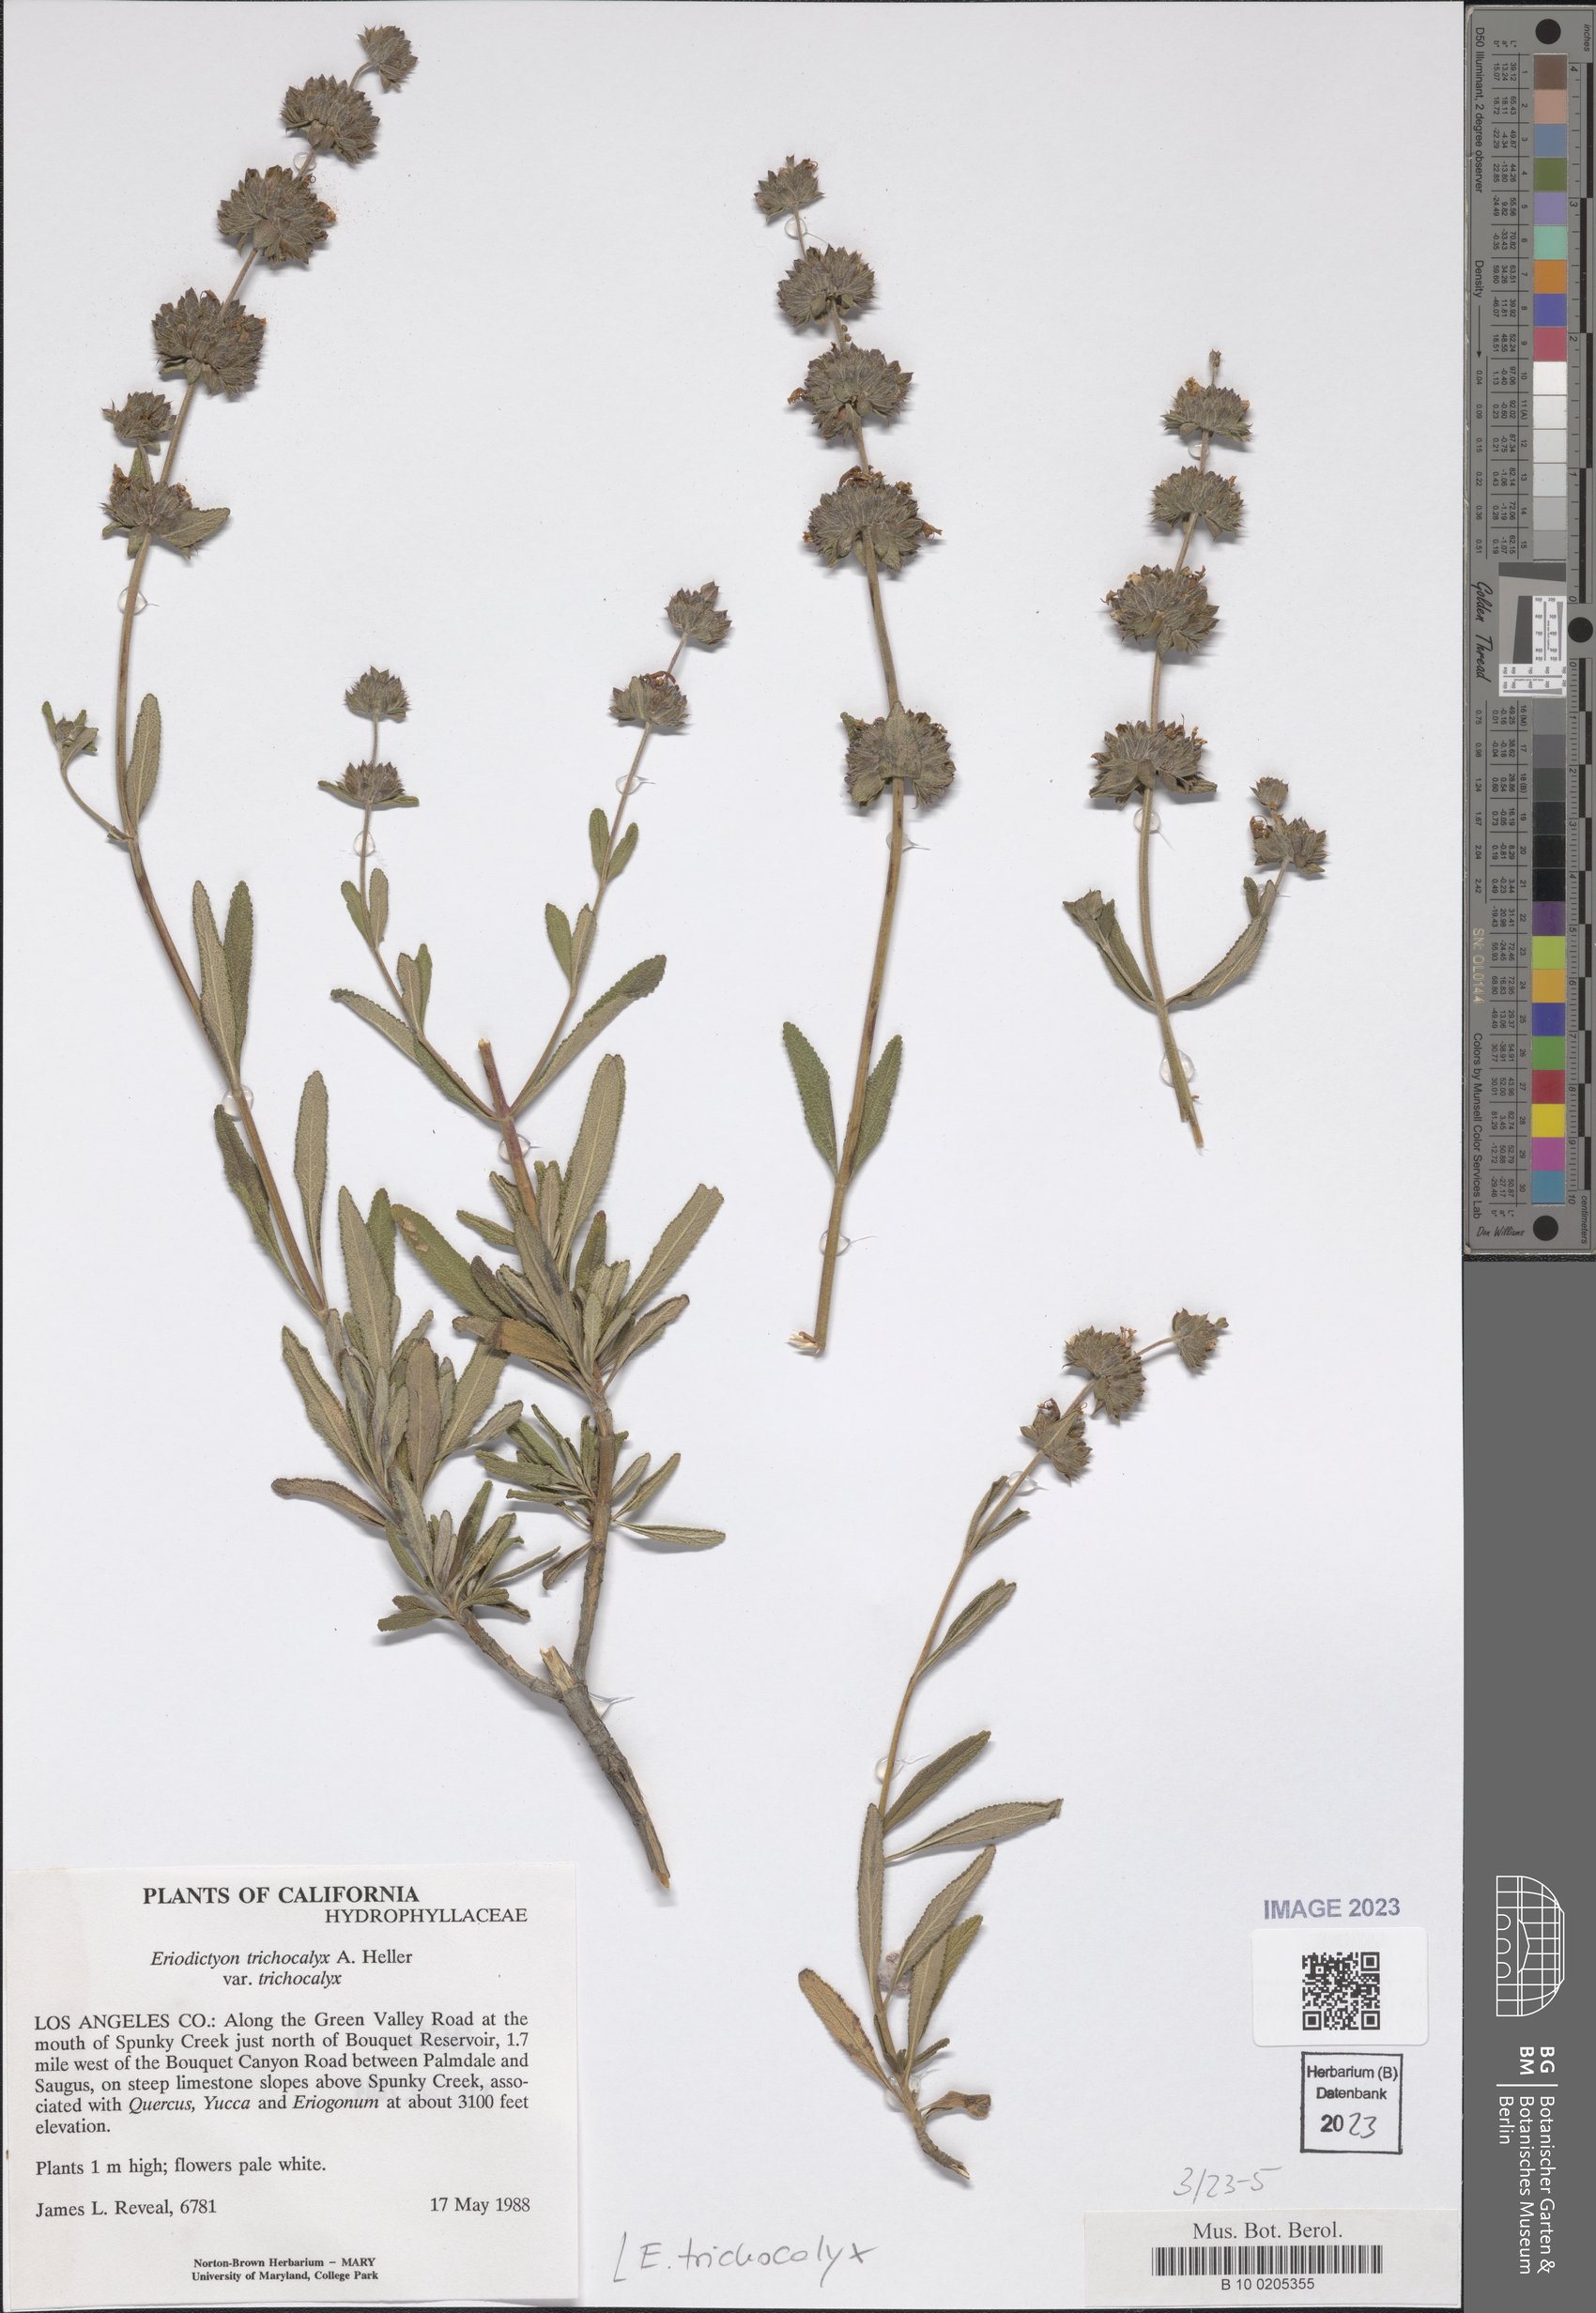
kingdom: Plantae
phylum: Tracheophyta
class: Magnoliopsida
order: Lamiales
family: Lamiaceae
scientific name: Lamiaceae
